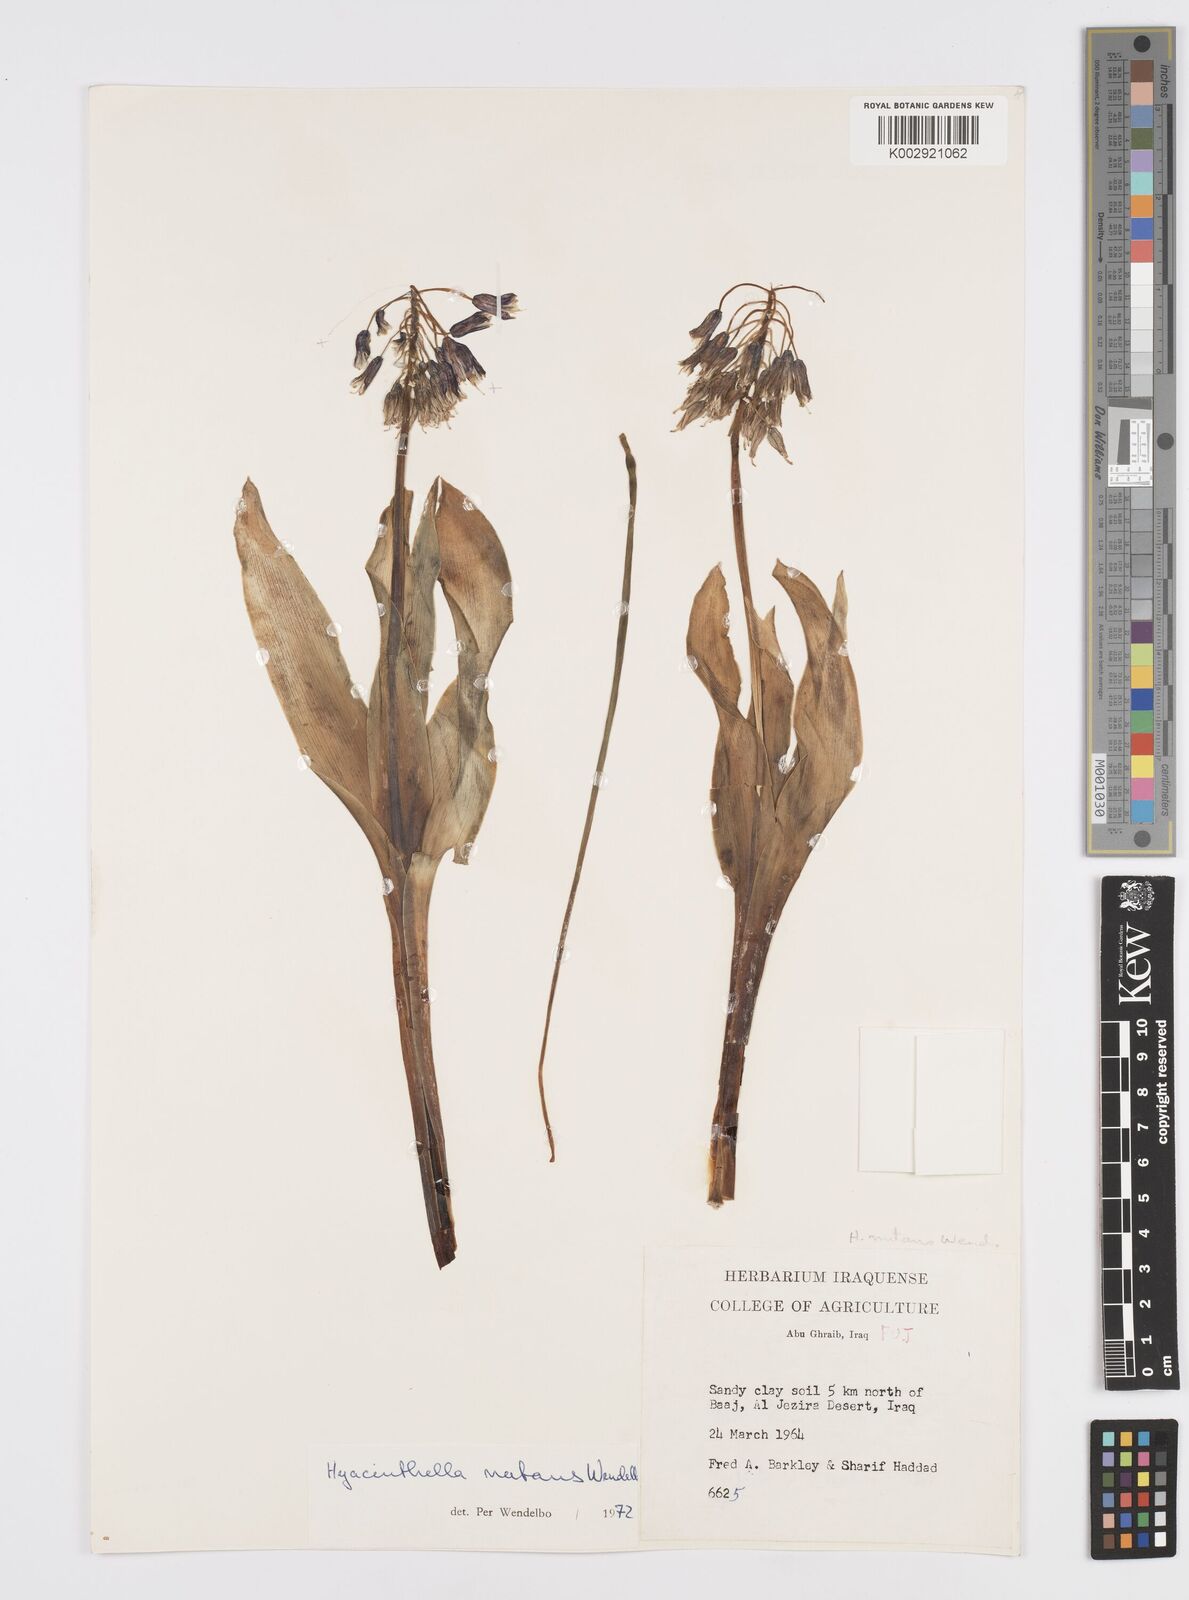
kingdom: Plantae
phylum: Tracheophyta
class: Liliopsida
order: Asparagales
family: Asparagaceae
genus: Alrawia
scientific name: Alrawia nutans
